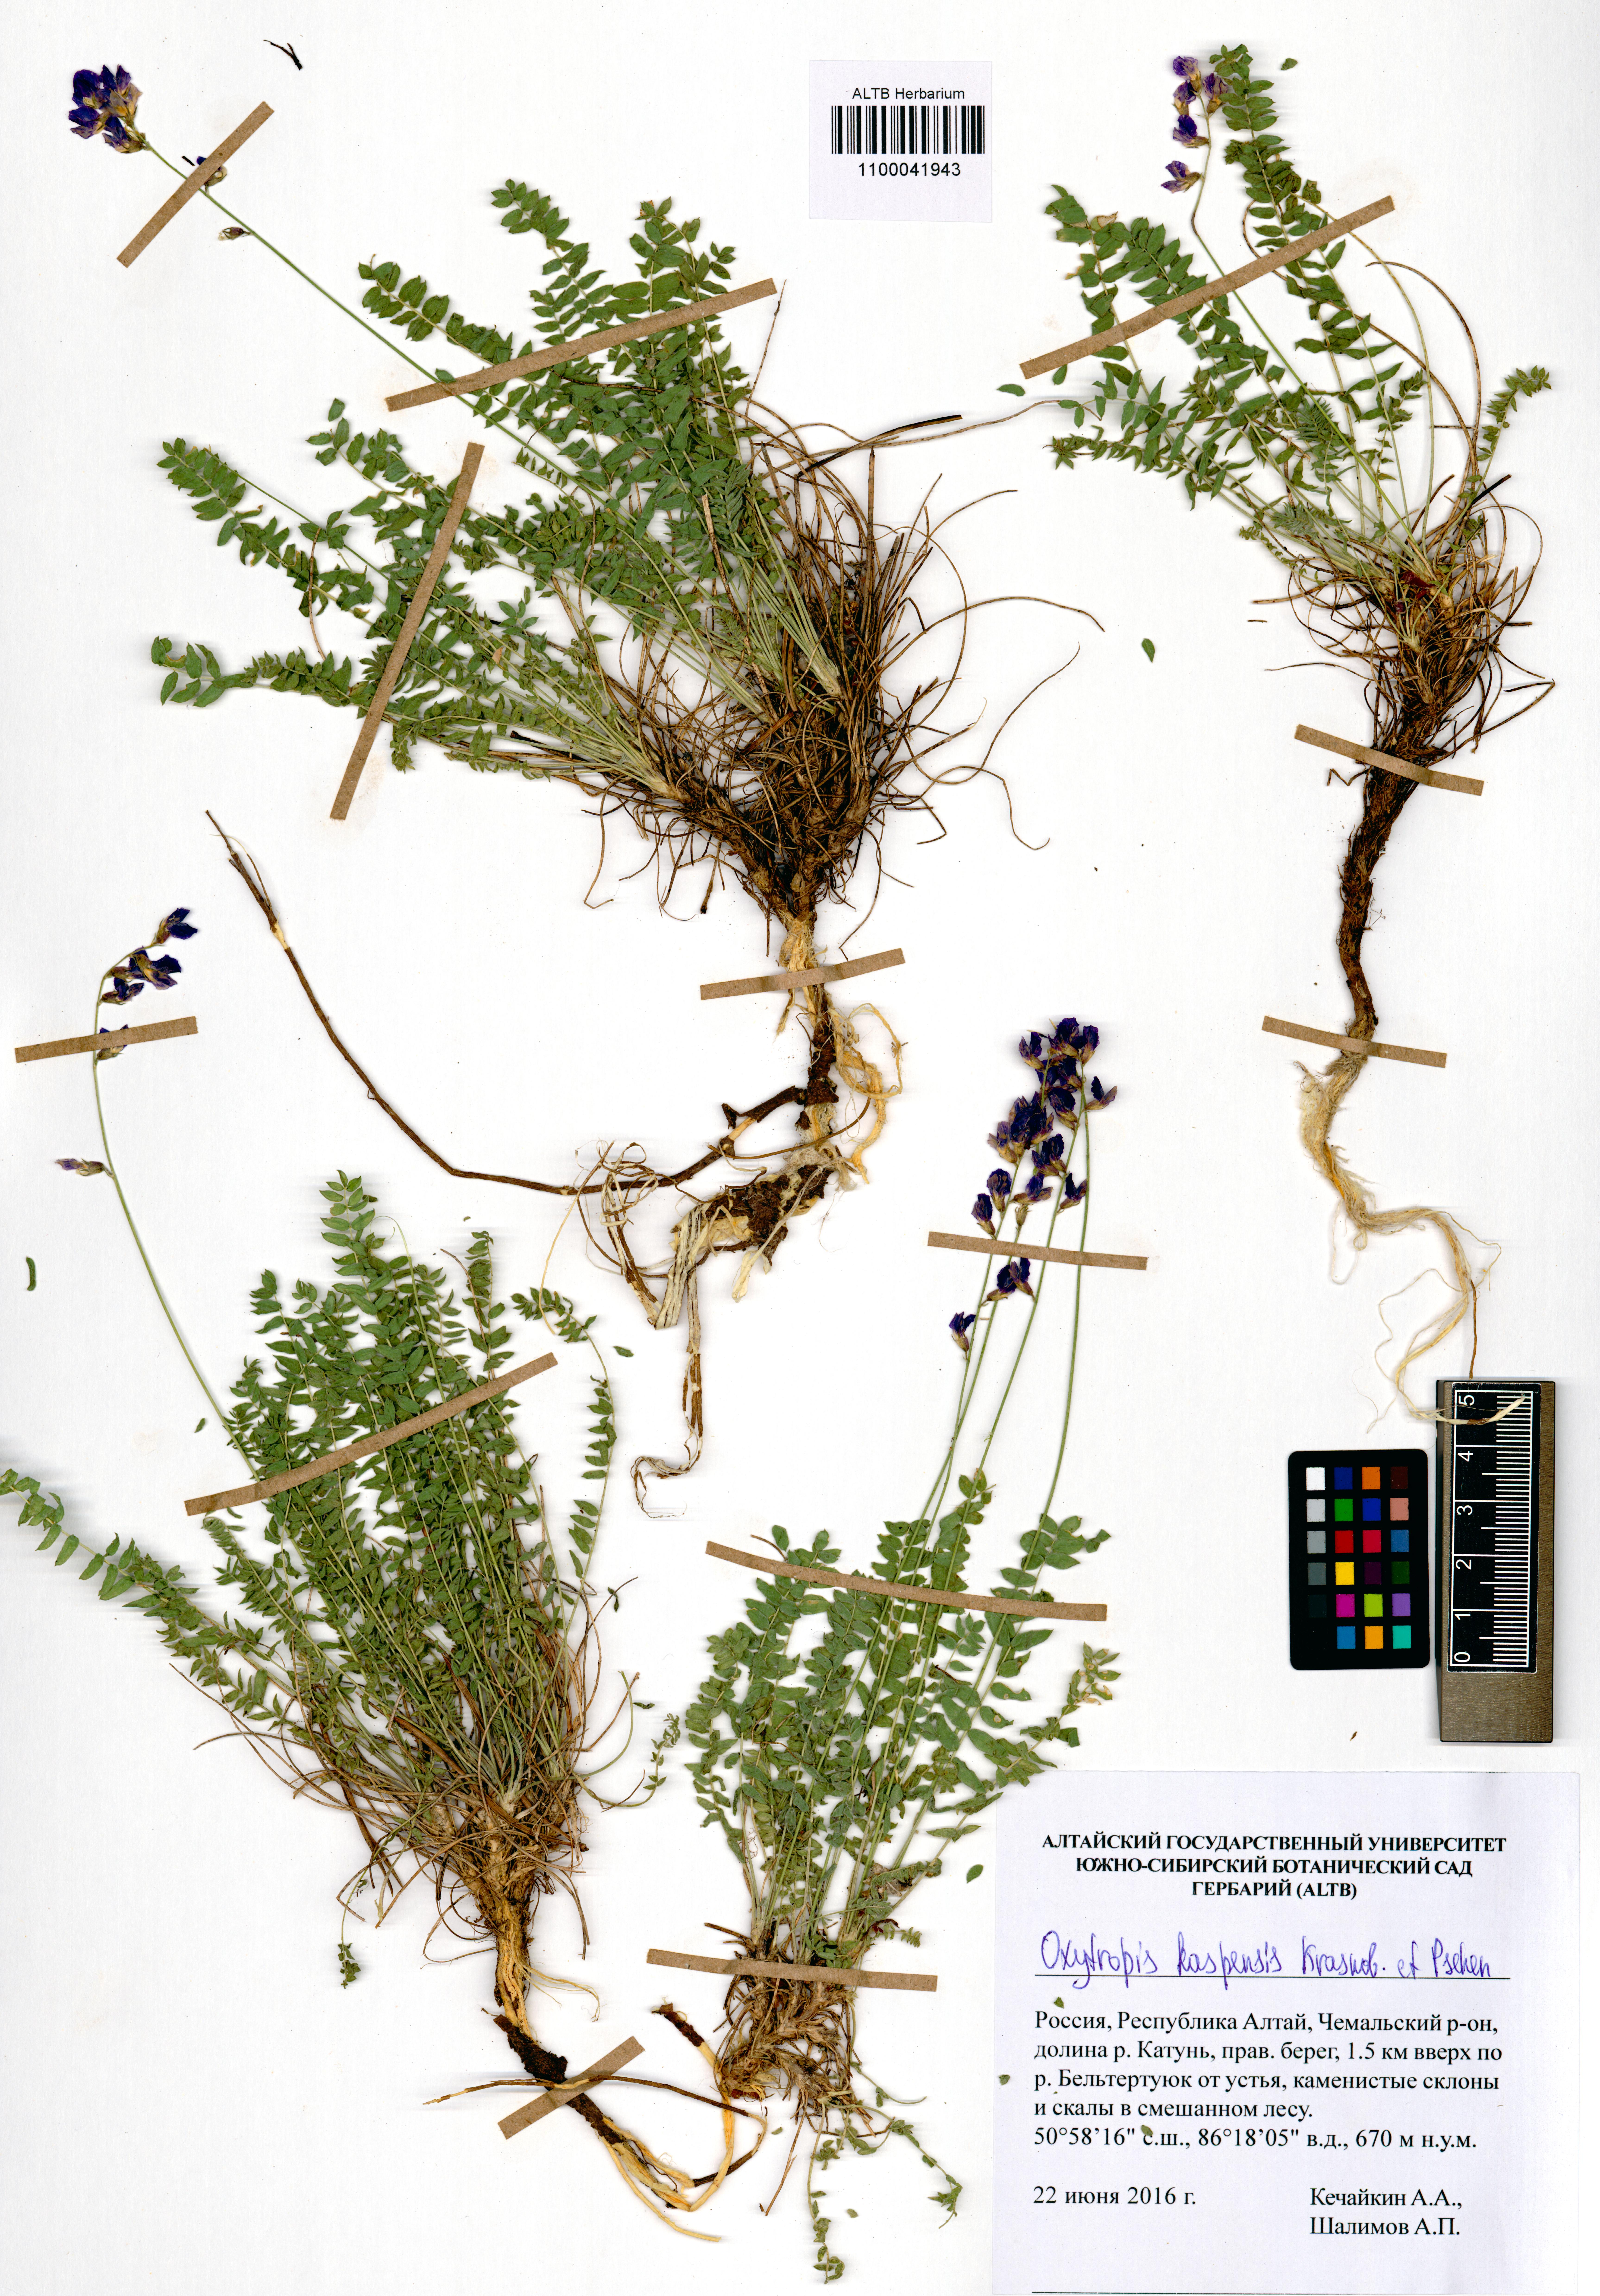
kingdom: Plantae
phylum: Tracheophyta
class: Magnoliopsida
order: Fabales
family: Fabaceae
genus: Oxytropis
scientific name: Oxytropis kaspensis
